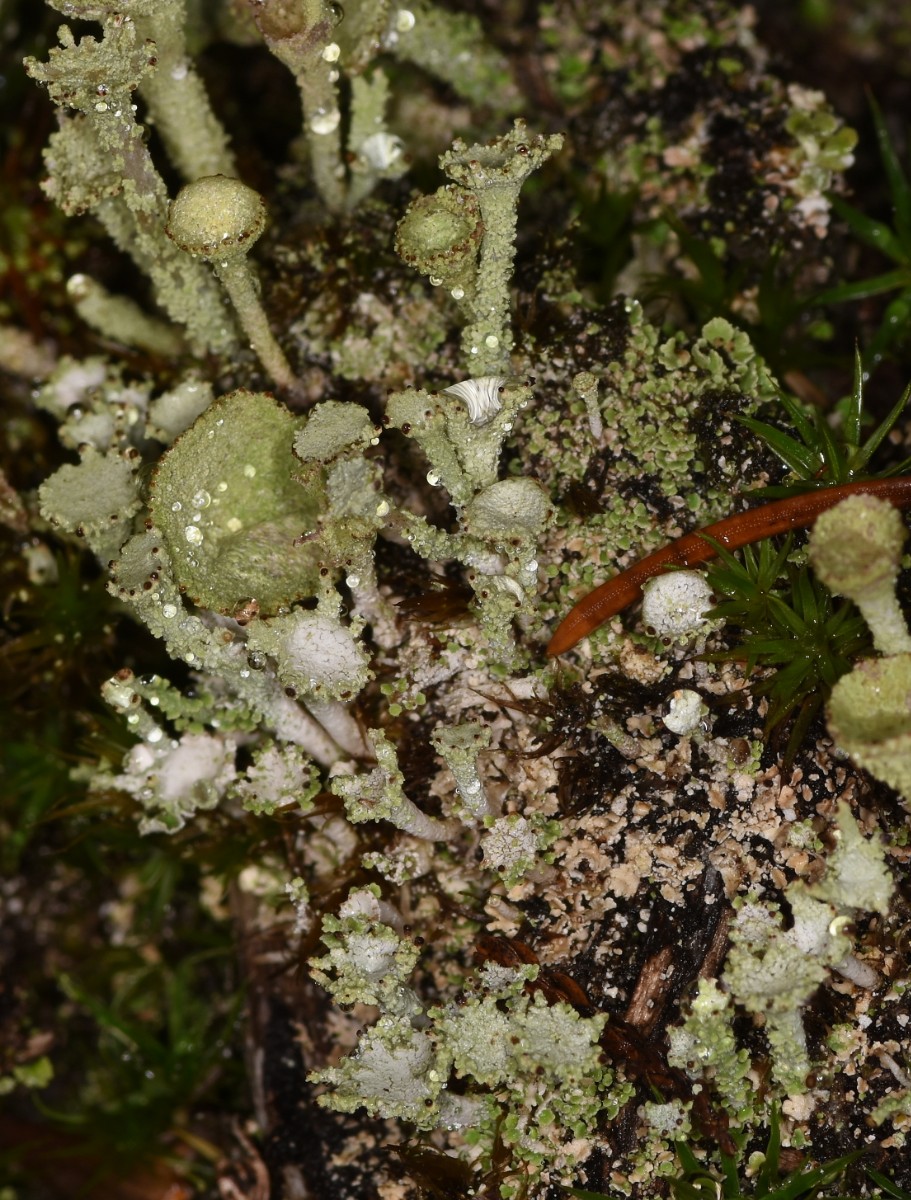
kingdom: Fungi
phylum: Ascomycota
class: Lecanoromycetes
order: Lecanorales
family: Cladoniaceae
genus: Cladonia
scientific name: Cladonia
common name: brungrøn bægerlav
